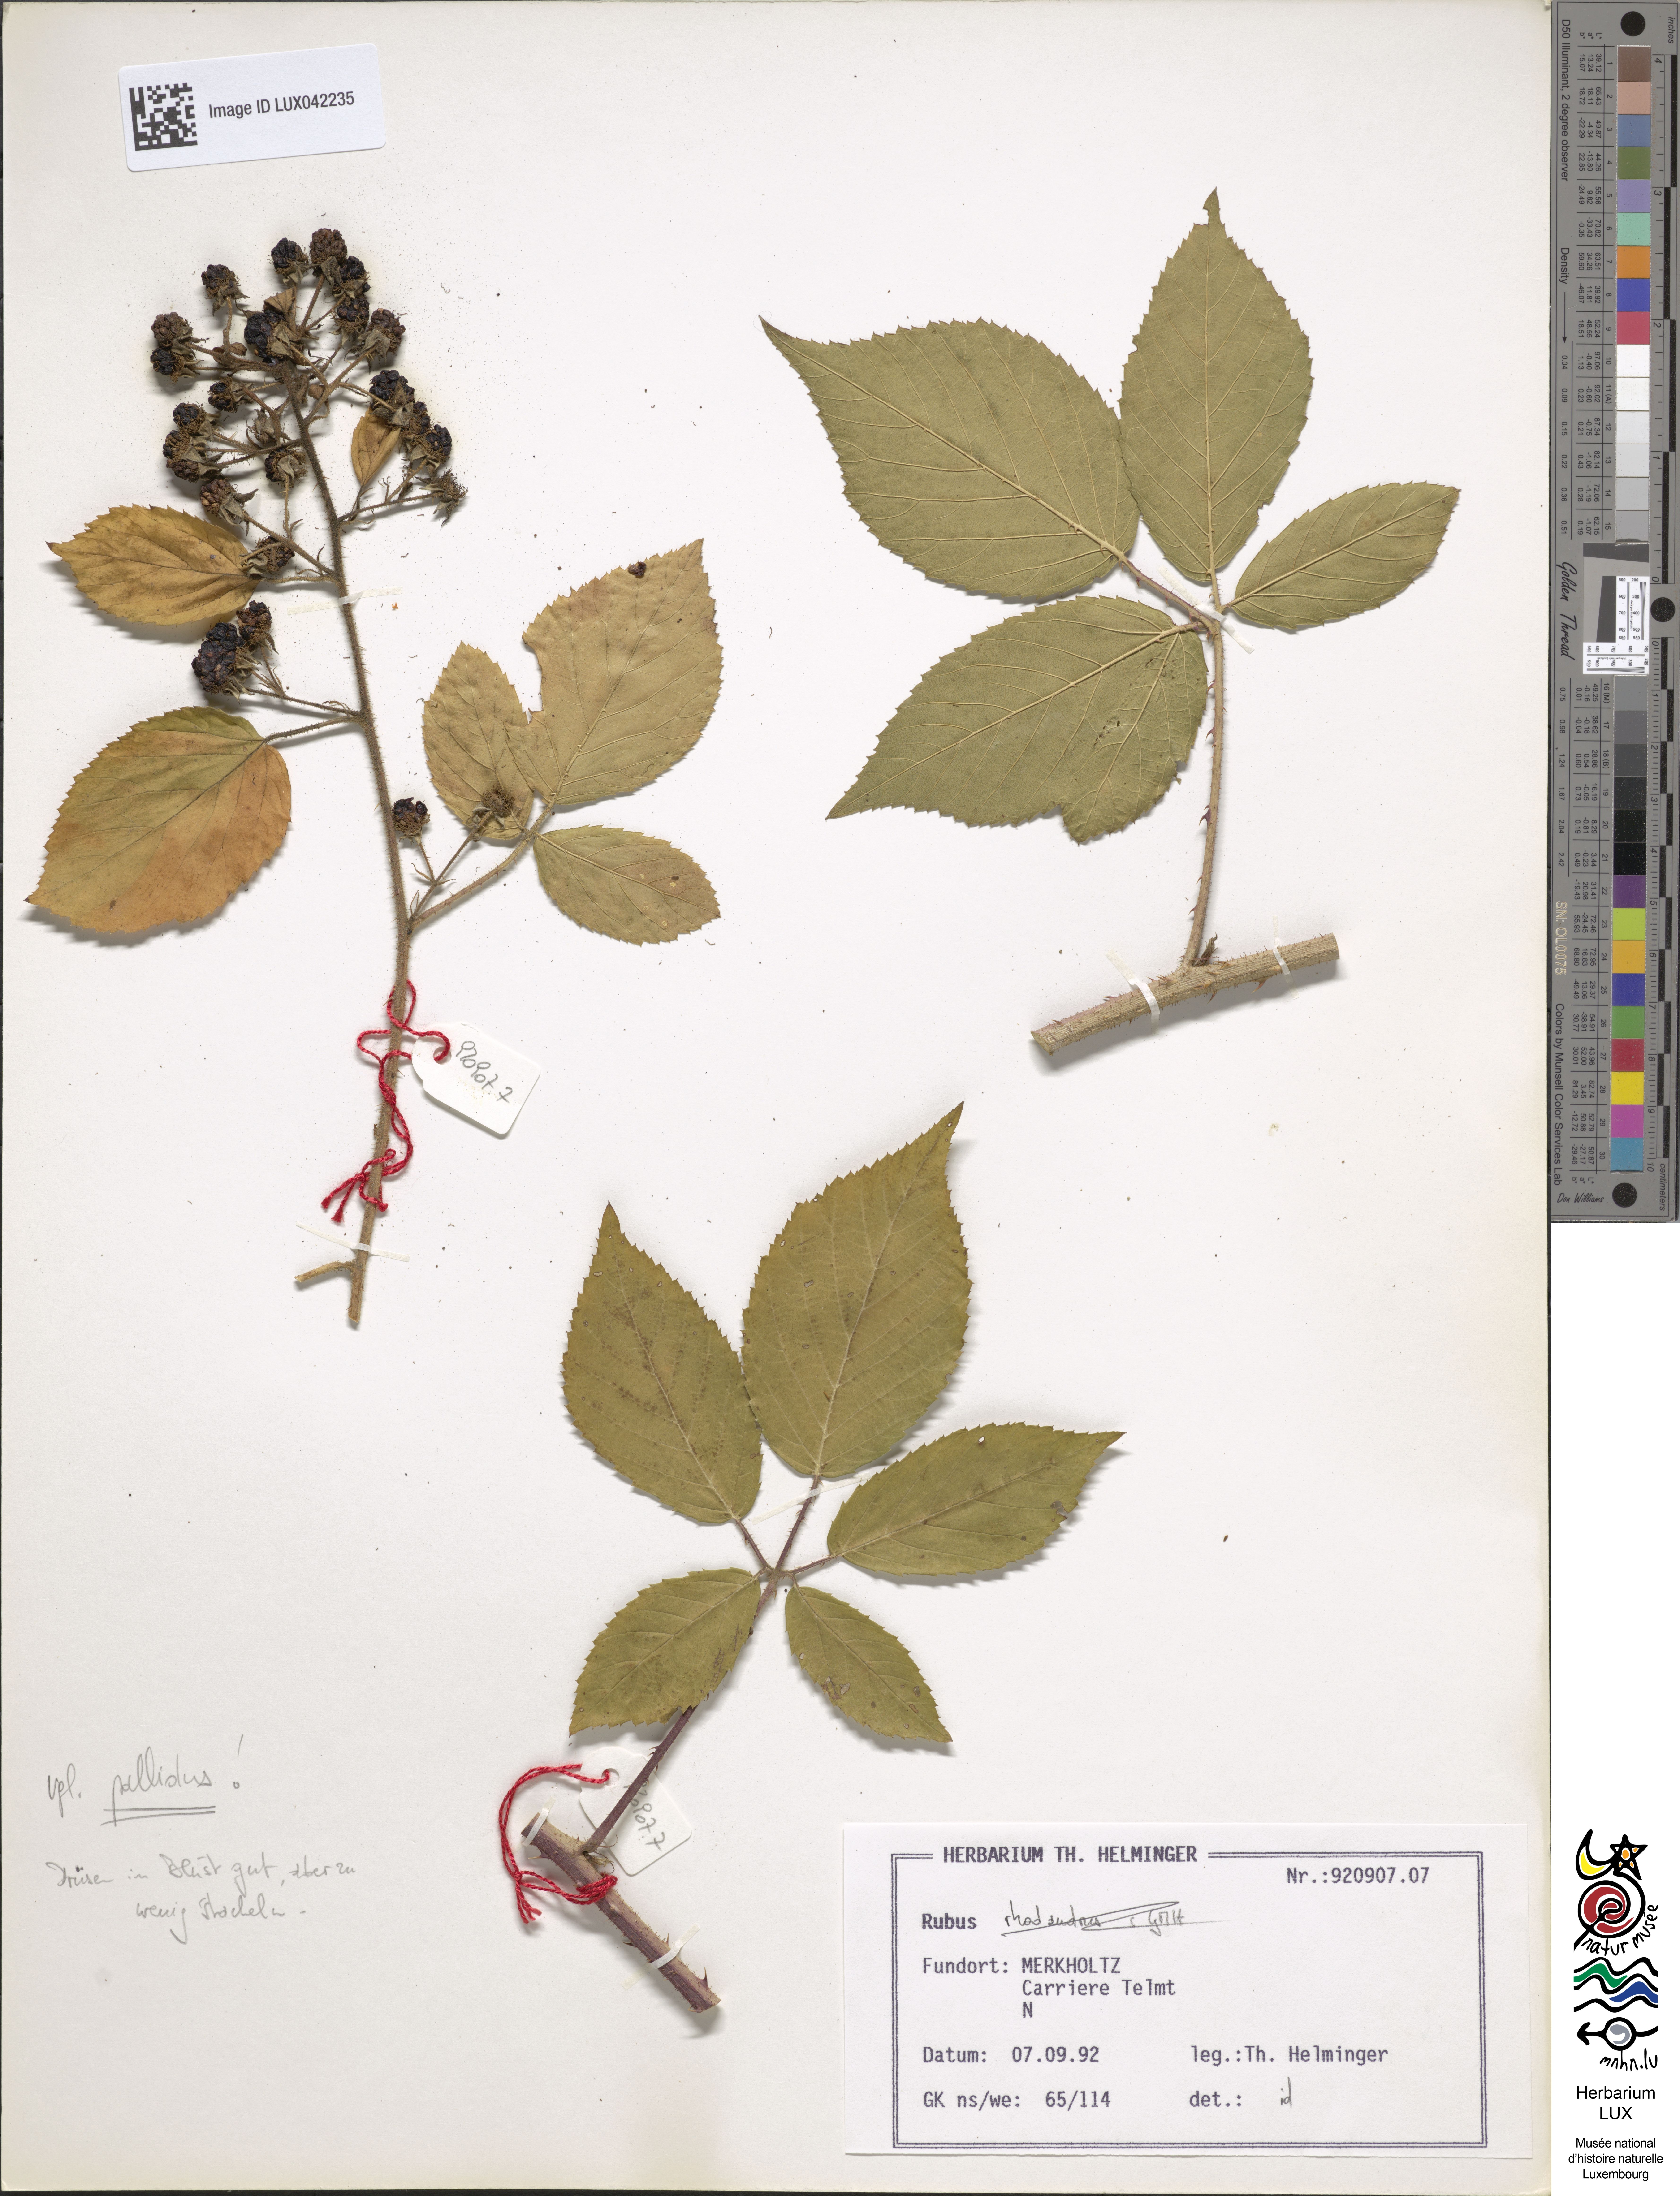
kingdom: Plantae
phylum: Tracheophyta
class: Magnoliopsida
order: Rosales
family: Rosaceae
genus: Rubus
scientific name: Rubus pallidus
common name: Pale bramble
